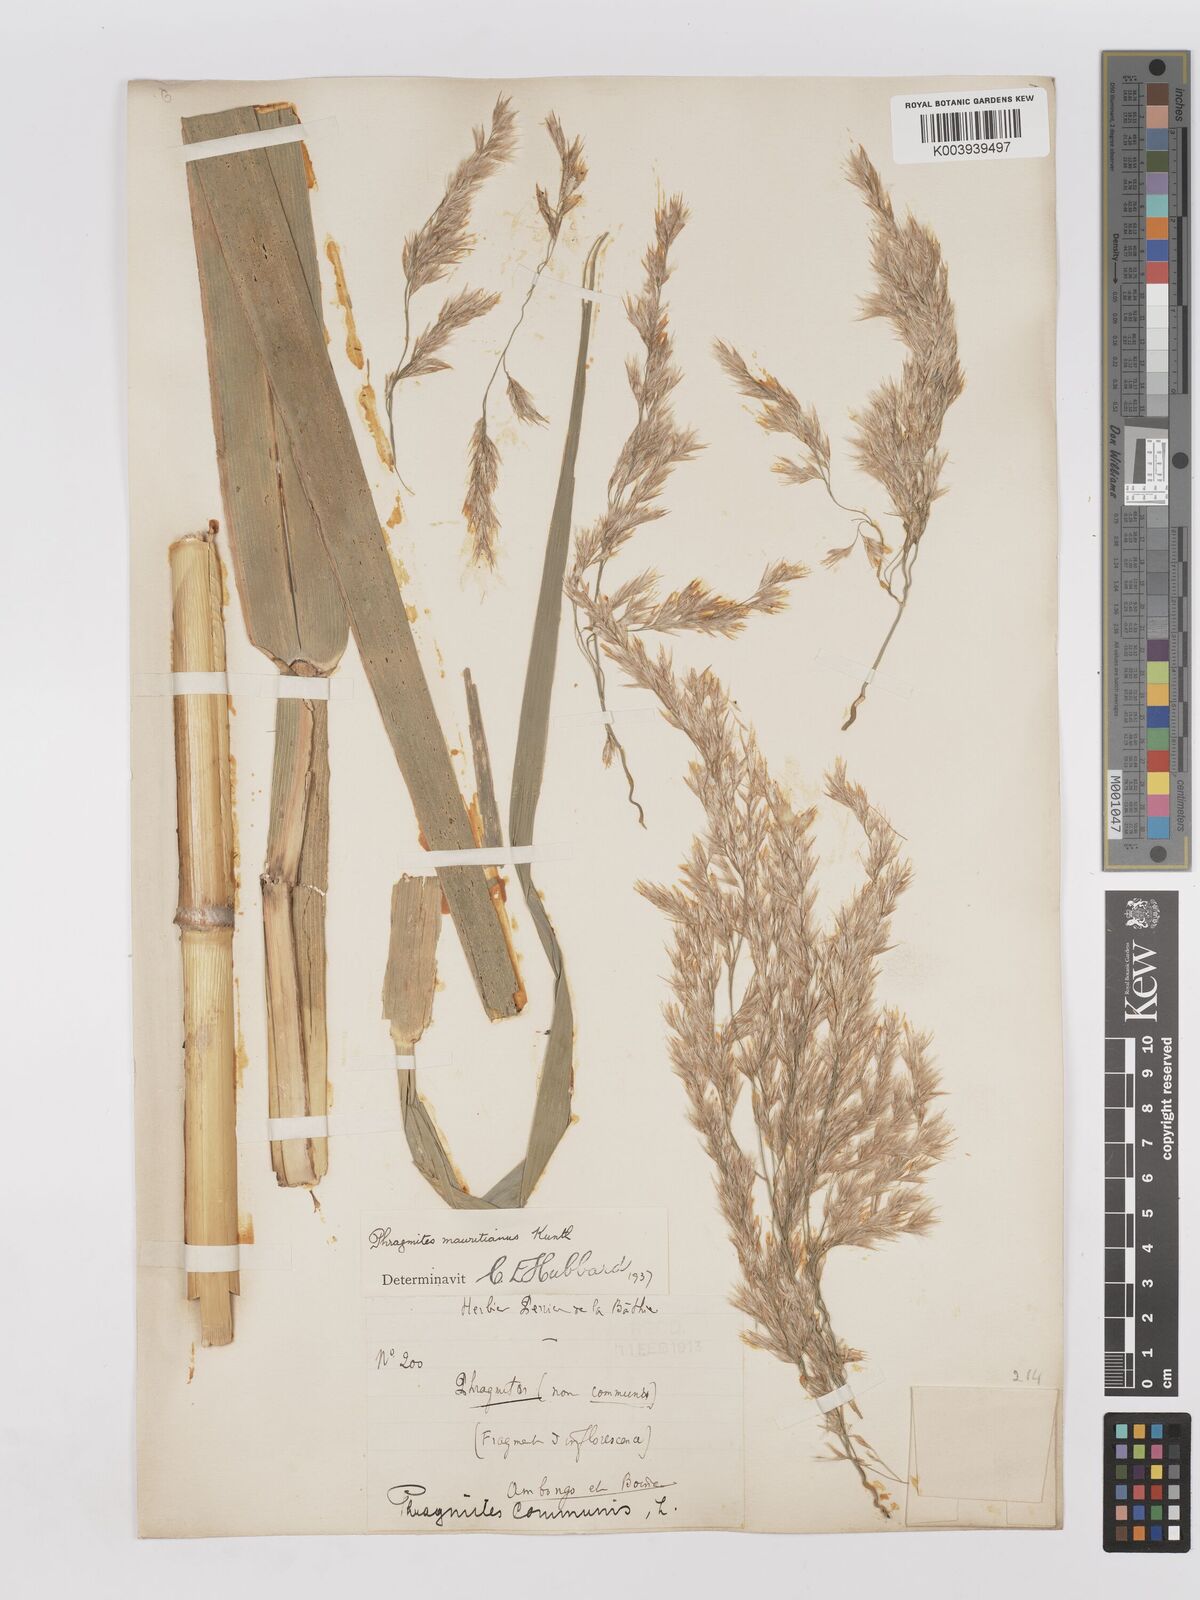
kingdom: Plantae
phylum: Tracheophyta
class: Liliopsida
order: Poales
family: Poaceae
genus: Phragmites
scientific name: Phragmites mauritianus
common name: Reed grass
